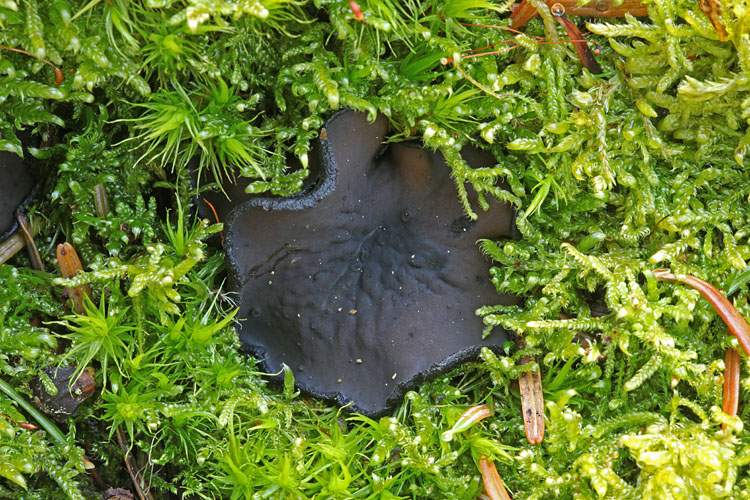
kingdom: Fungi
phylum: Ascomycota
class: Pezizomycetes
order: Pezizales
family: Sarcosomataceae
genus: Pseudoplectania
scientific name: Pseudoplectania nigrella
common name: almindelig sortbæger
